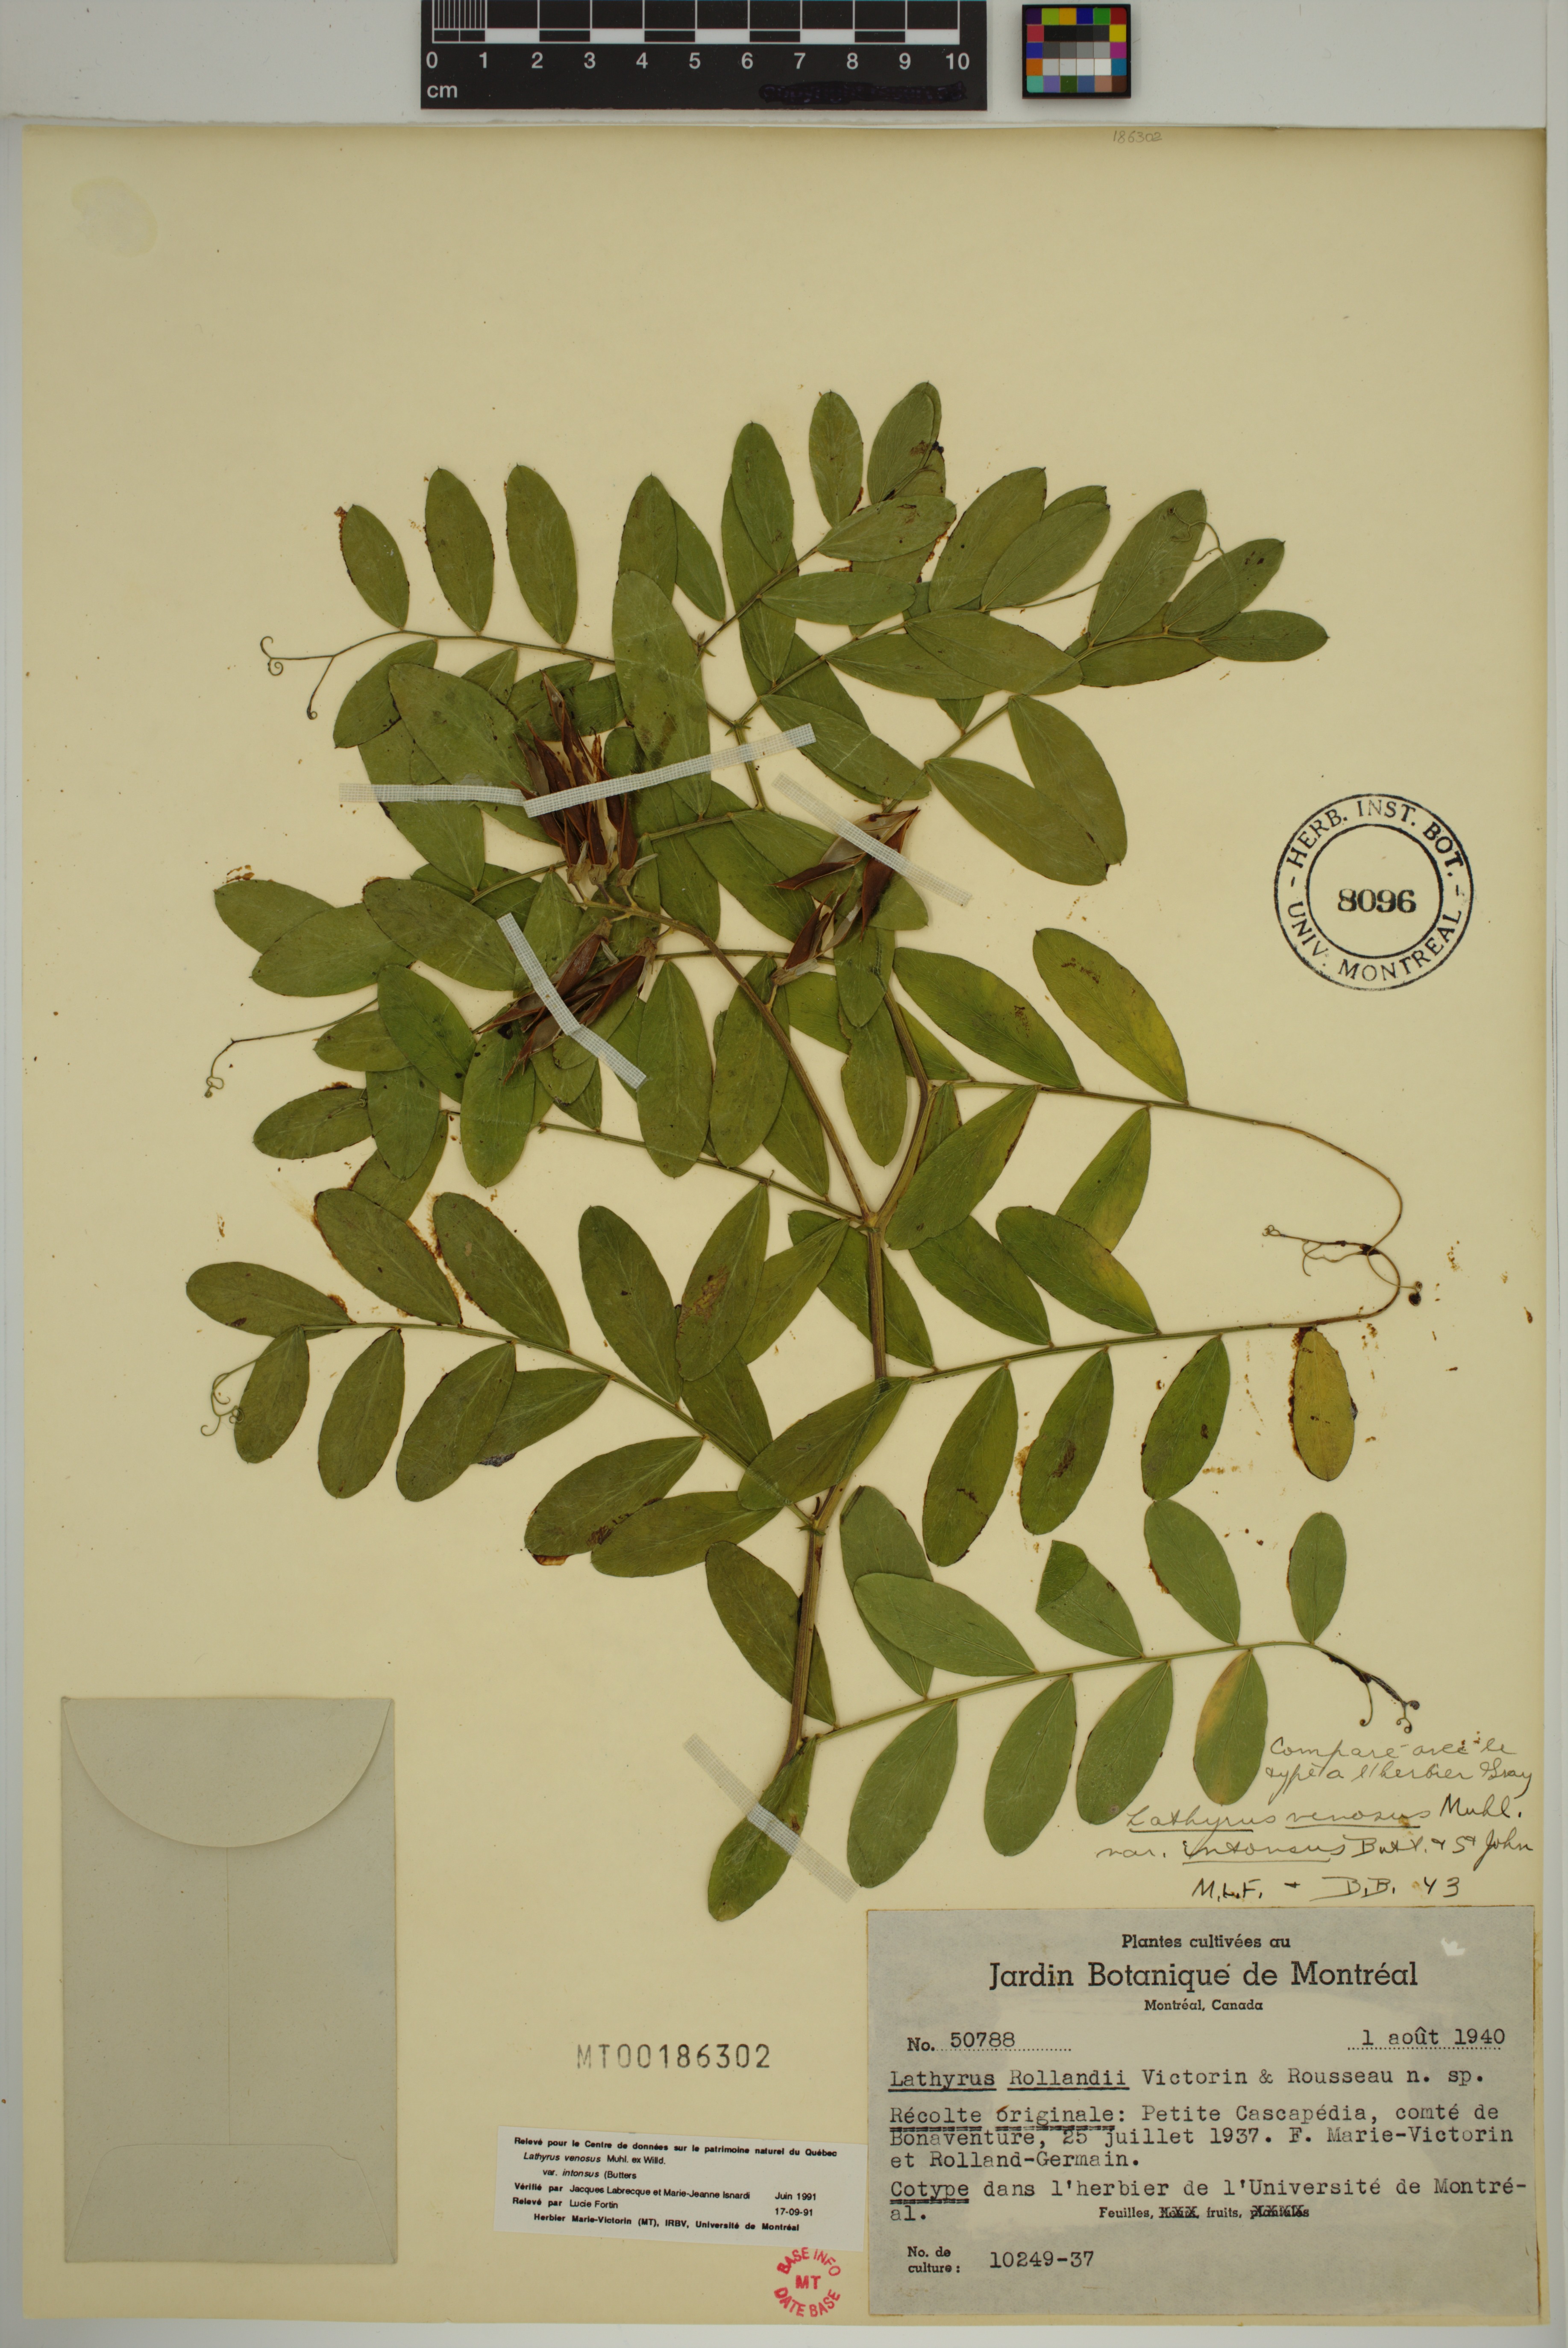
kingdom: Plantae
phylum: Tracheophyta
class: Magnoliopsida
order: Fabales
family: Fabaceae
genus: Lathyrus
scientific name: Lathyrus venosus
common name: Forest-pea
